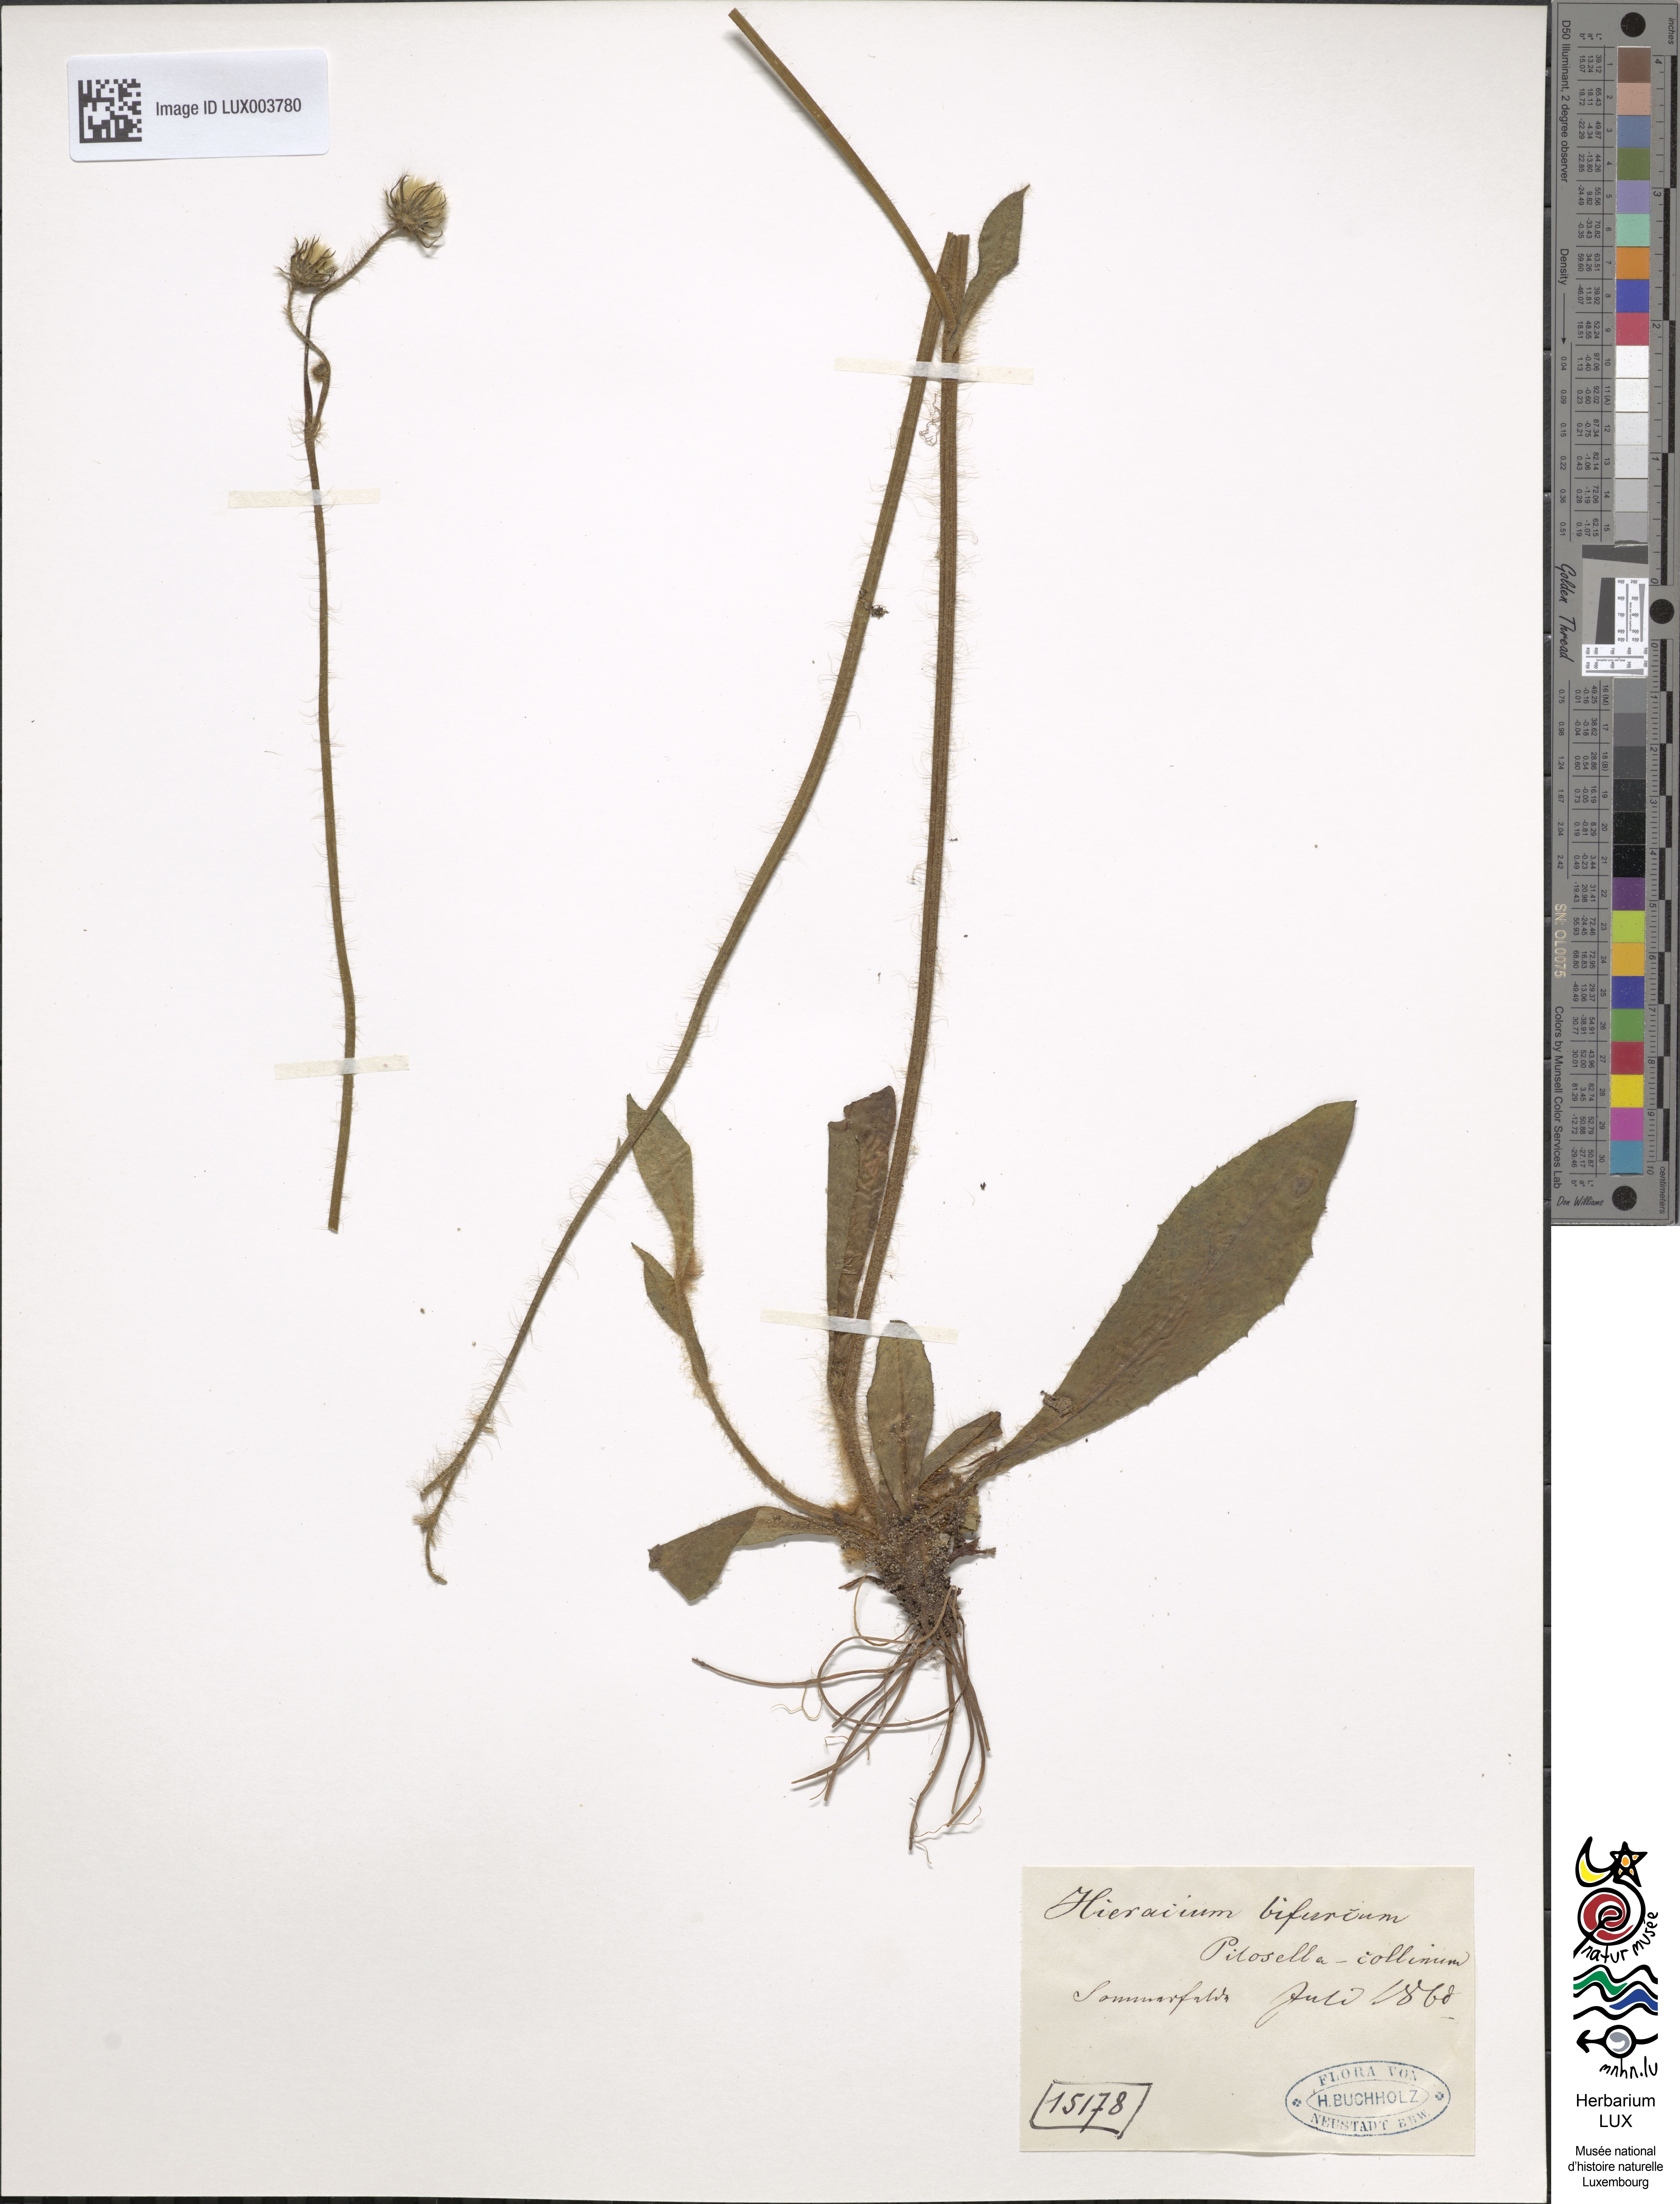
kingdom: Plantae
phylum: Tracheophyta
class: Magnoliopsida
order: Asterales
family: Asteraceae
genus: Pilosella
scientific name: Pilosella bifurca
